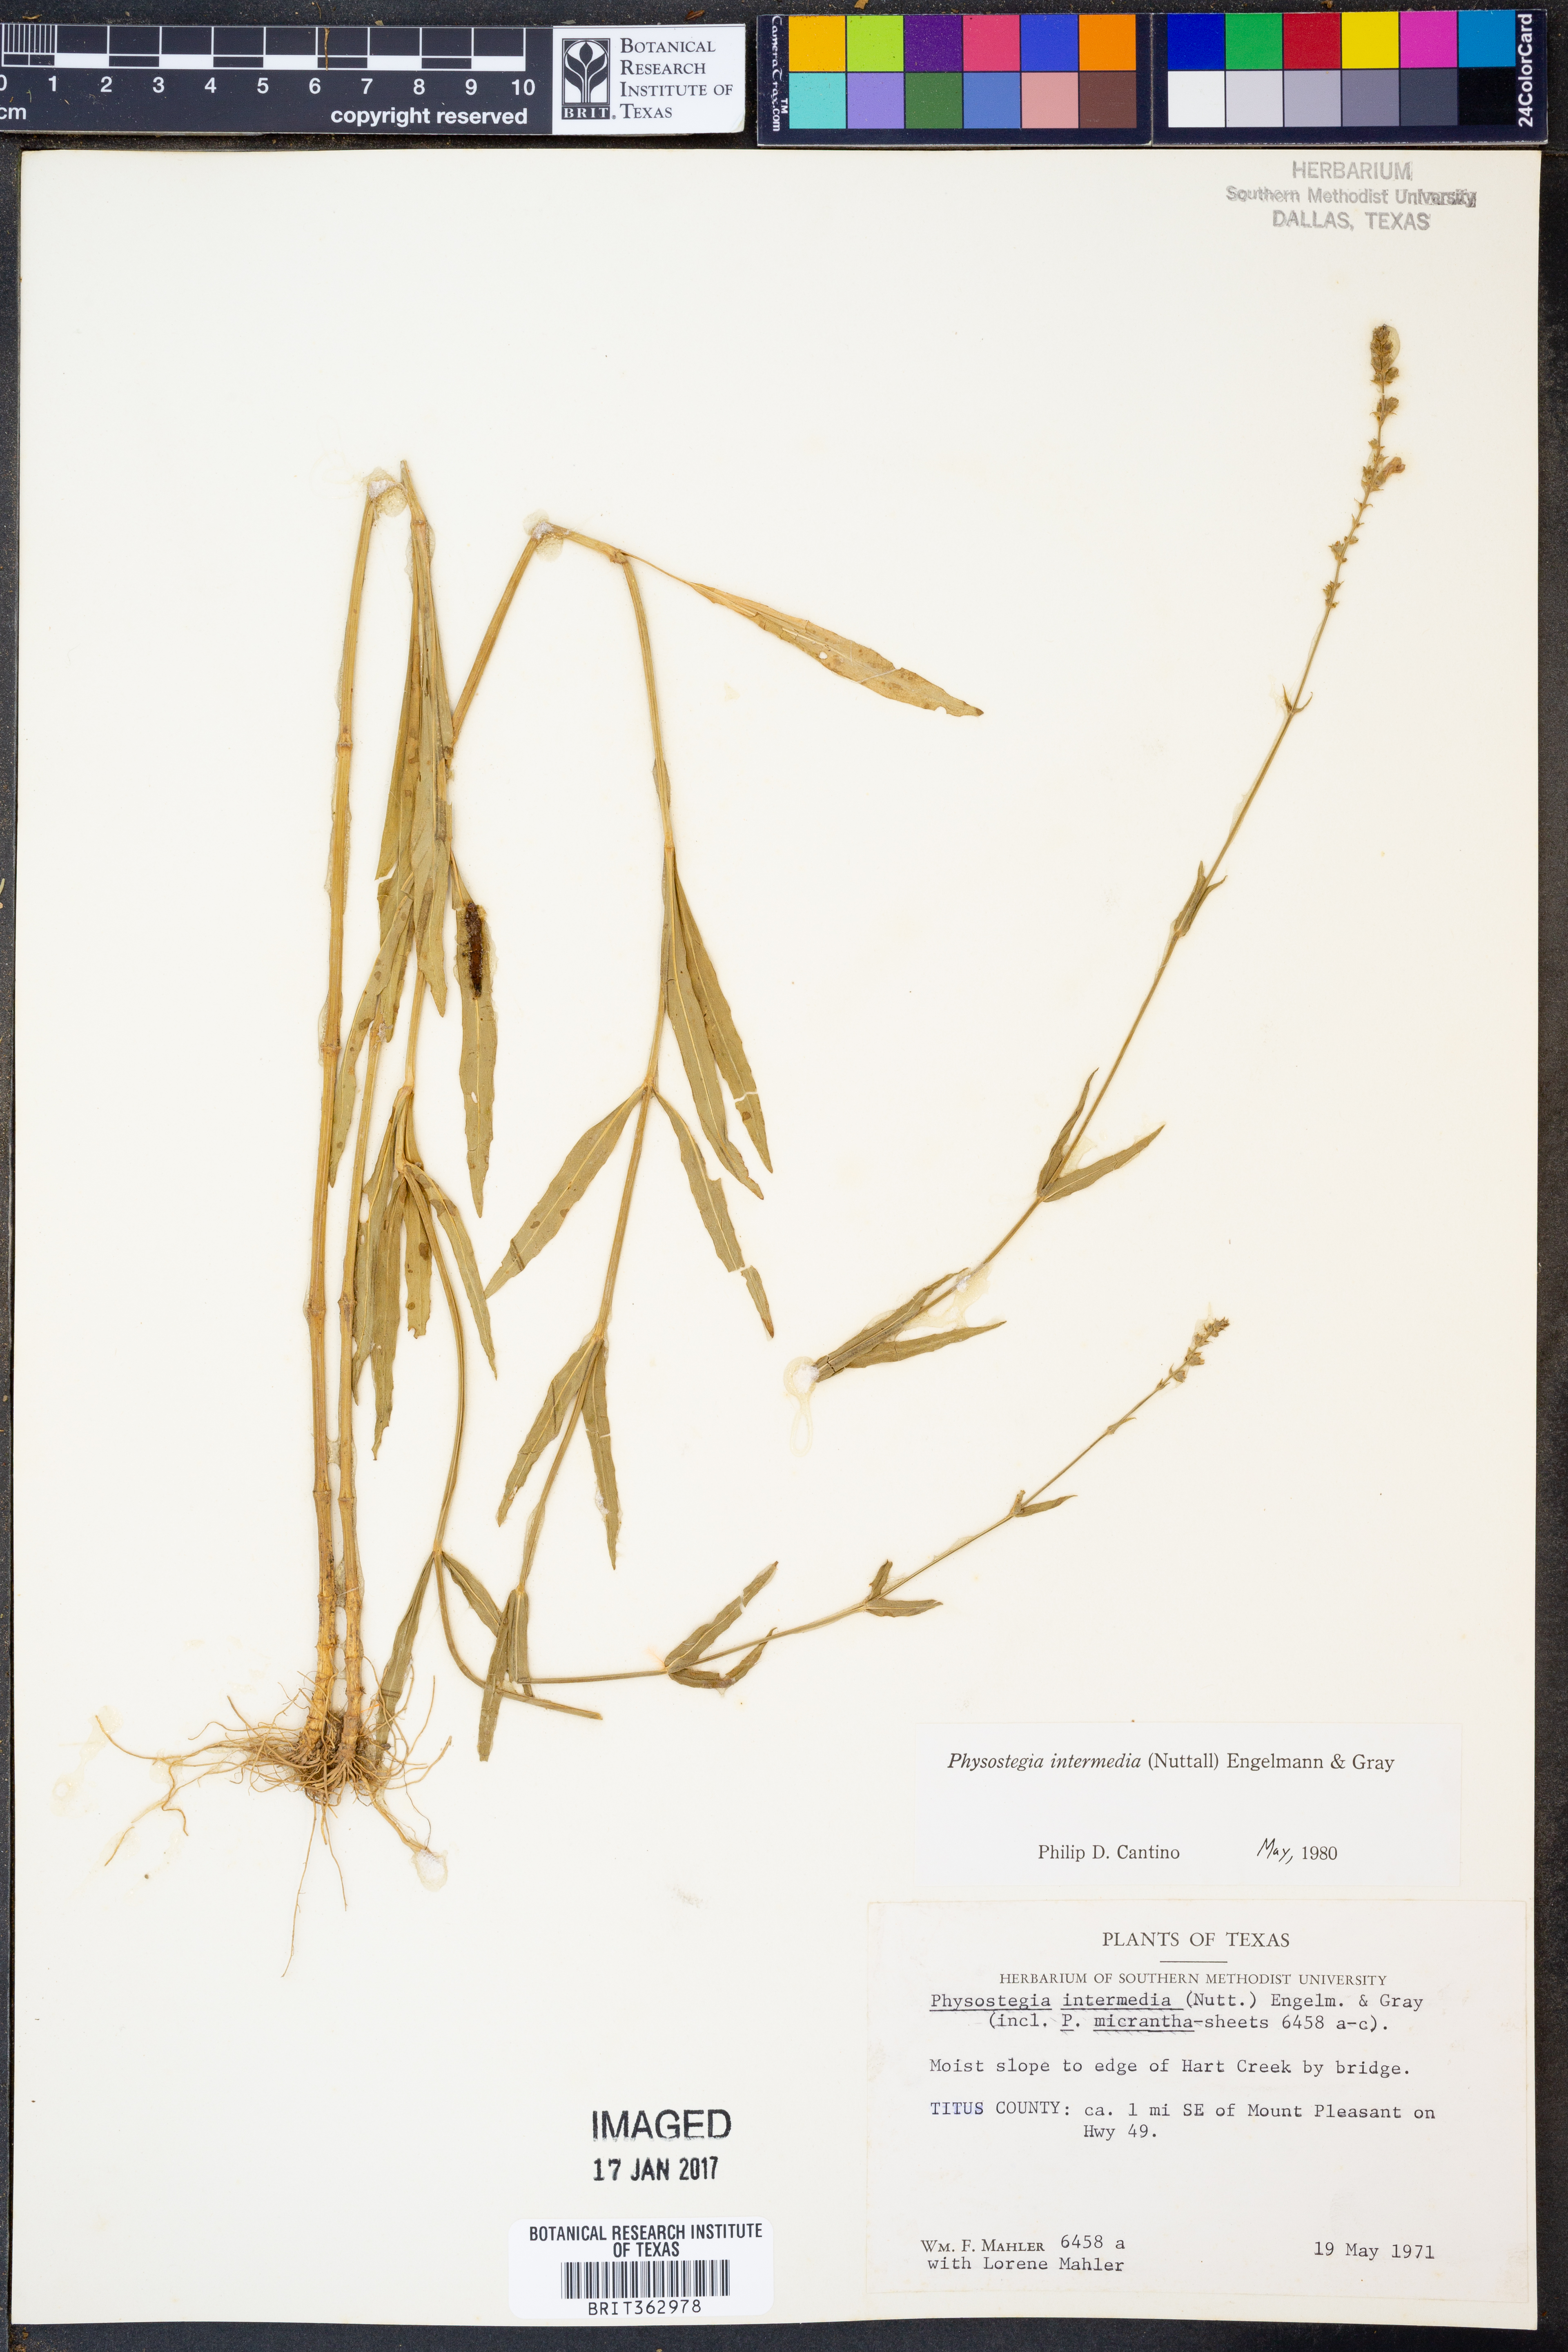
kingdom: Plantae
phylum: Tracheophyta
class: Magnoliopsida
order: Lamiales
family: Lamiaceae
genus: Physostegia
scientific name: Physostegia intermedia
